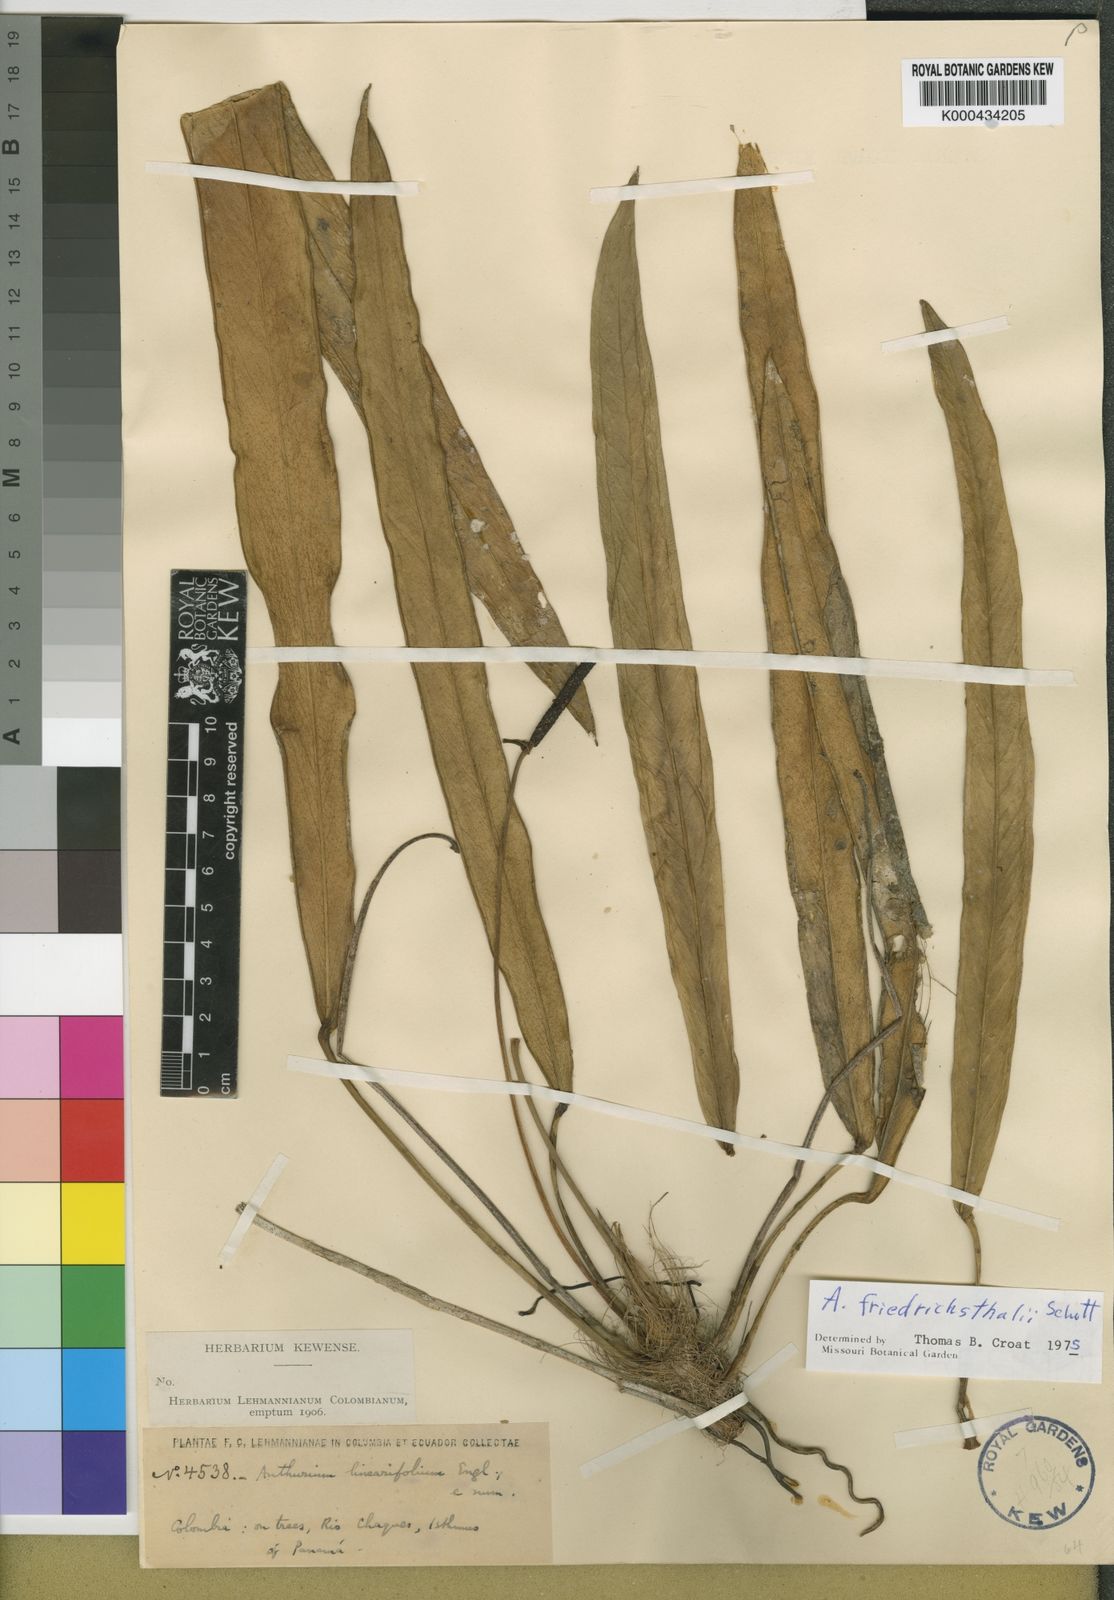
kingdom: Plantae
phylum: Tracheophyta
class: Liliopsida
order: Alismatales
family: Araceae
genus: Anthurium
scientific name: Anthurium friedrichsthalii
